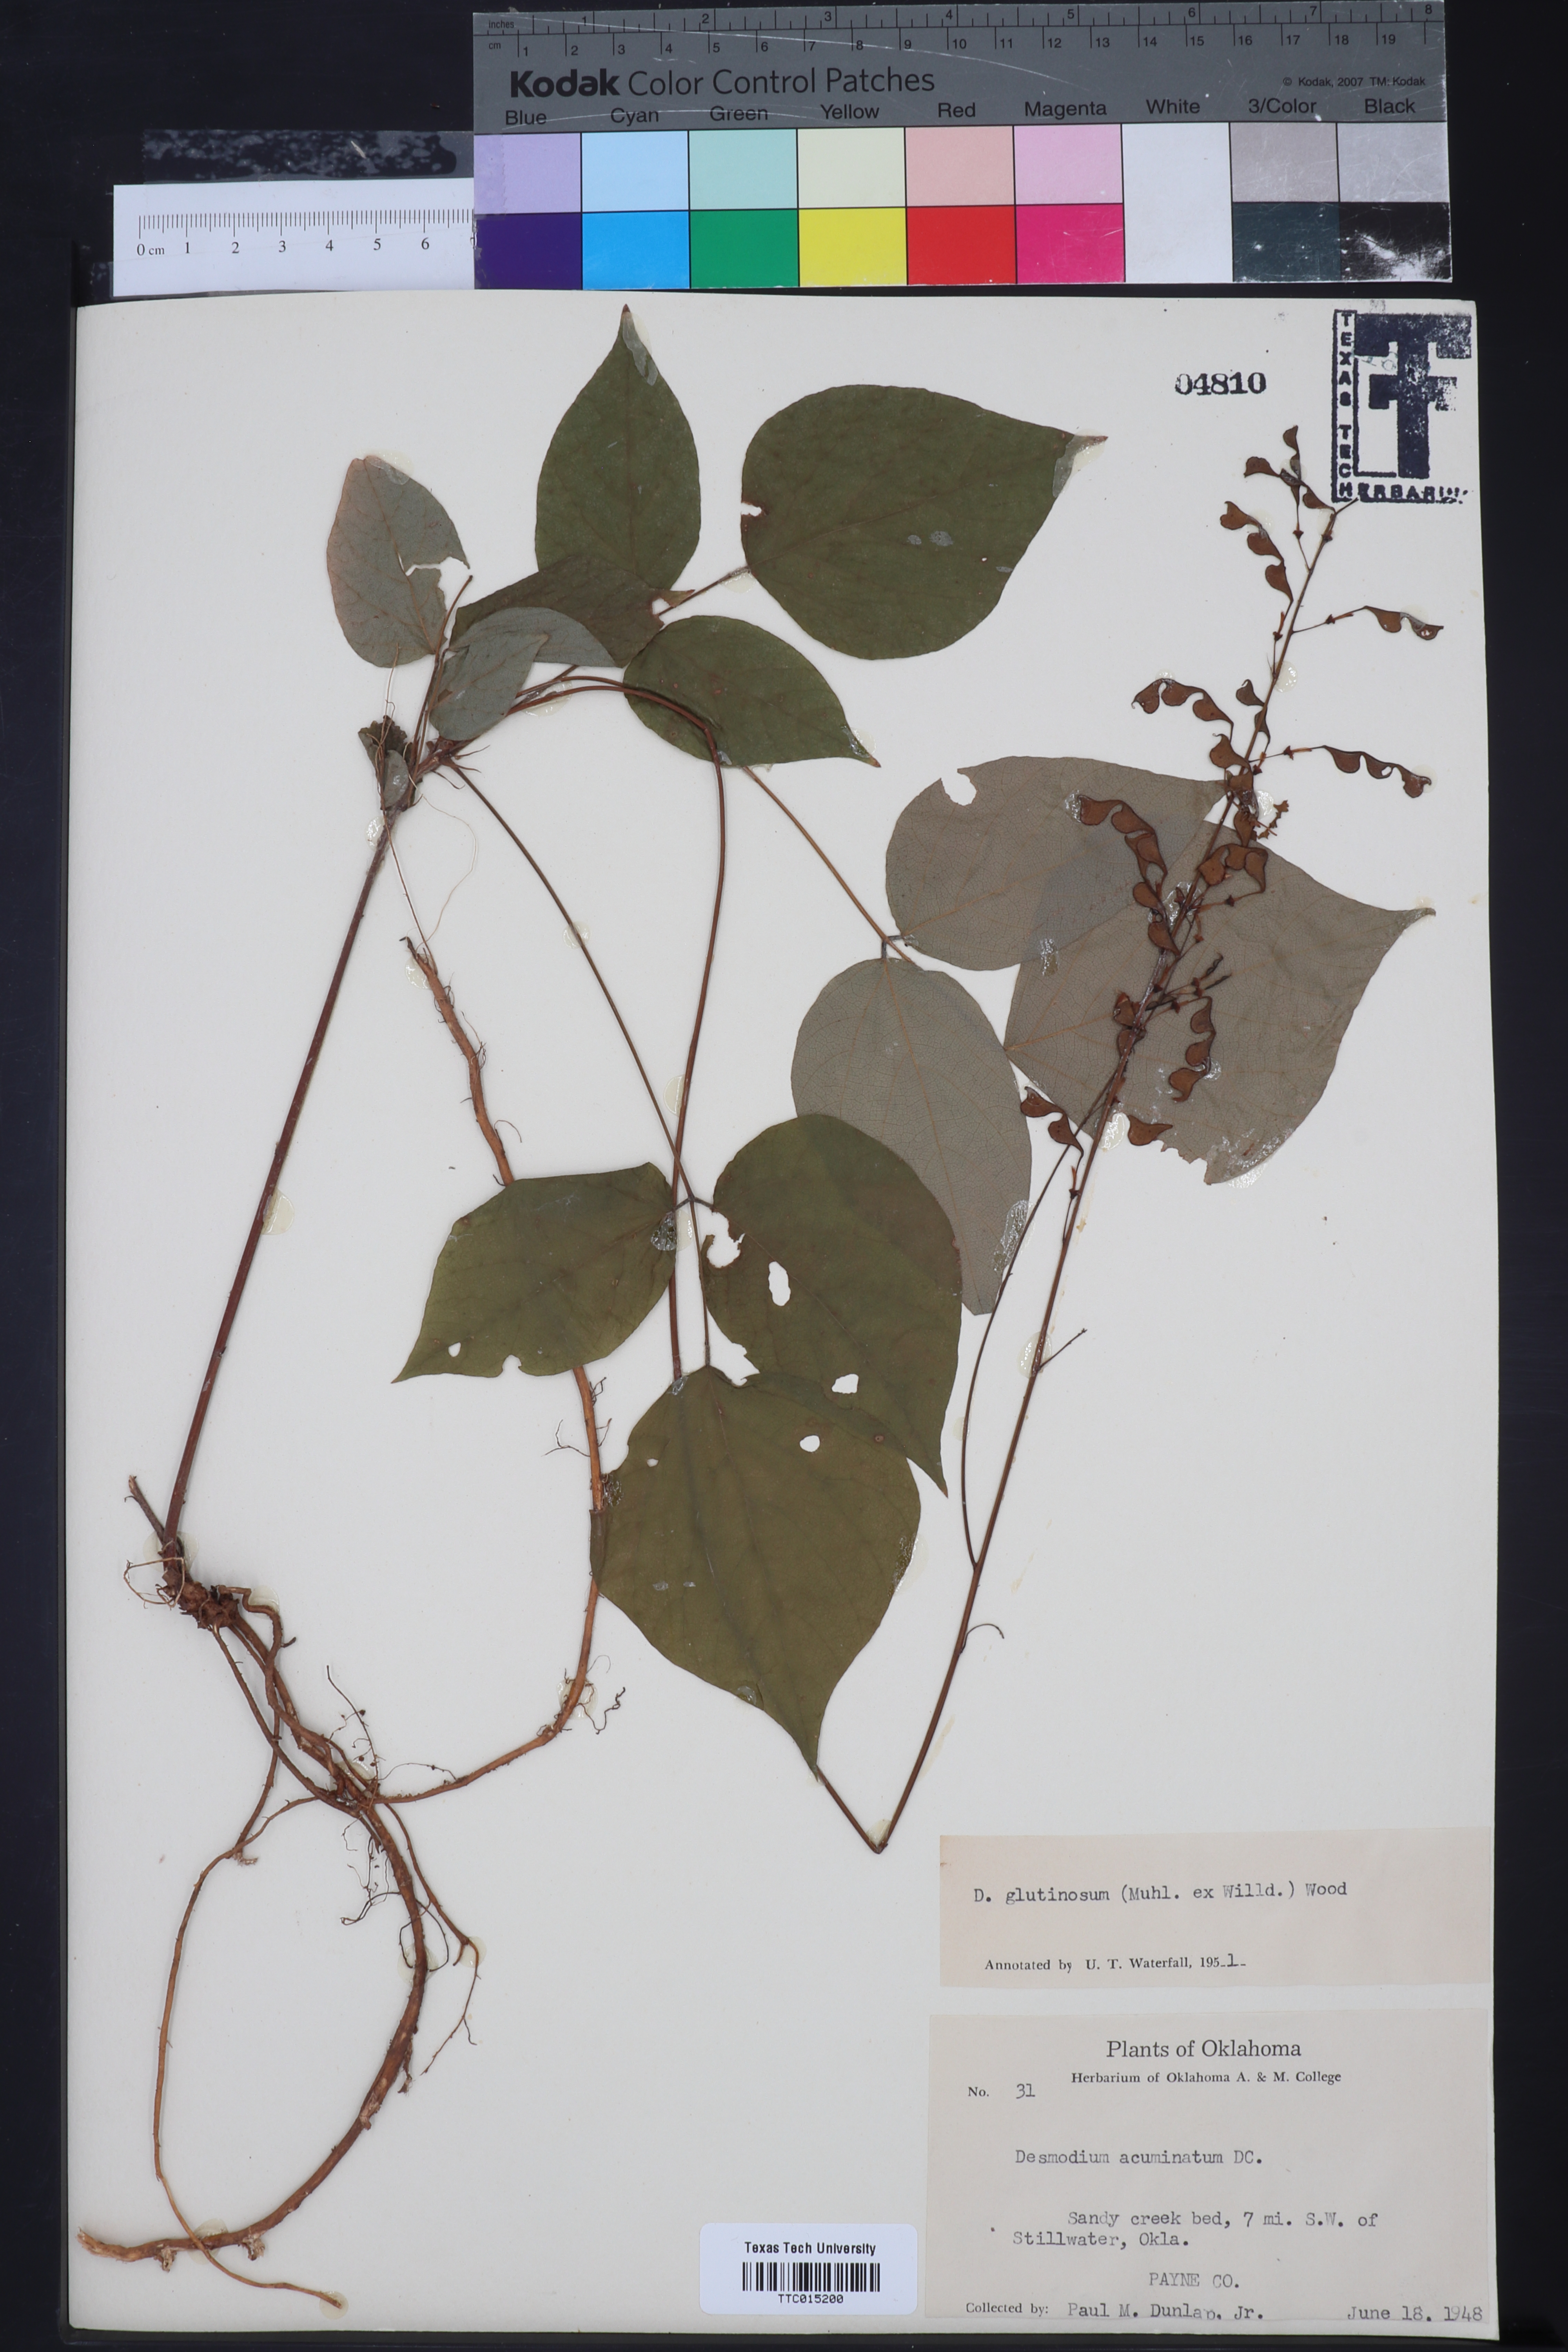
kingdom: Plantae
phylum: Tracheophyta
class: Magnoliopsida
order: Fabales
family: Fabaceae
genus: Hylodesmum
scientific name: Hylodesmum glutinosum
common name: Clustered-leaved tick-trefoil
